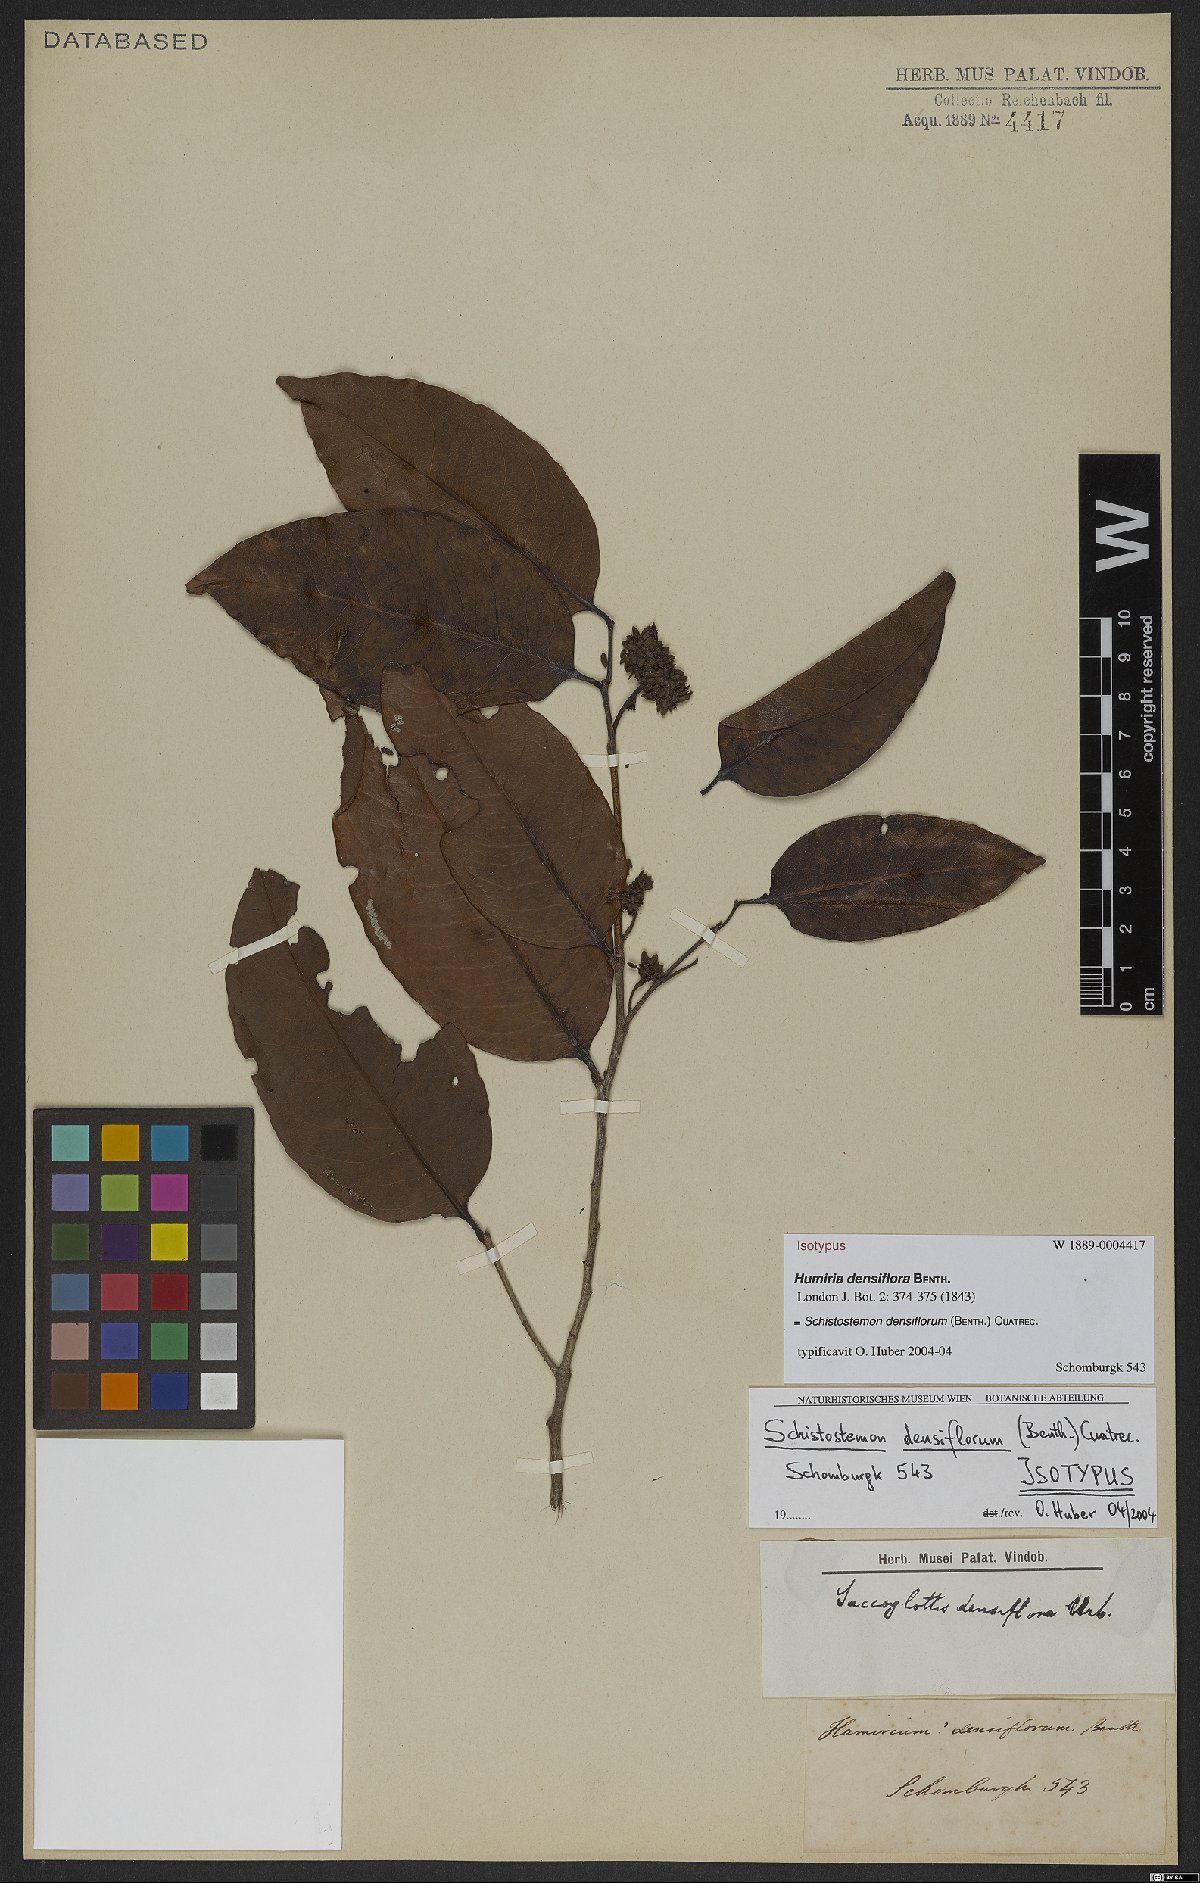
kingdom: Plantae
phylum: Tracheophyta
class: Magnoliopsida
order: Malpighiales
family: Humiriaceae
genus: Schistostemon
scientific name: Schistostemon densiflorum
